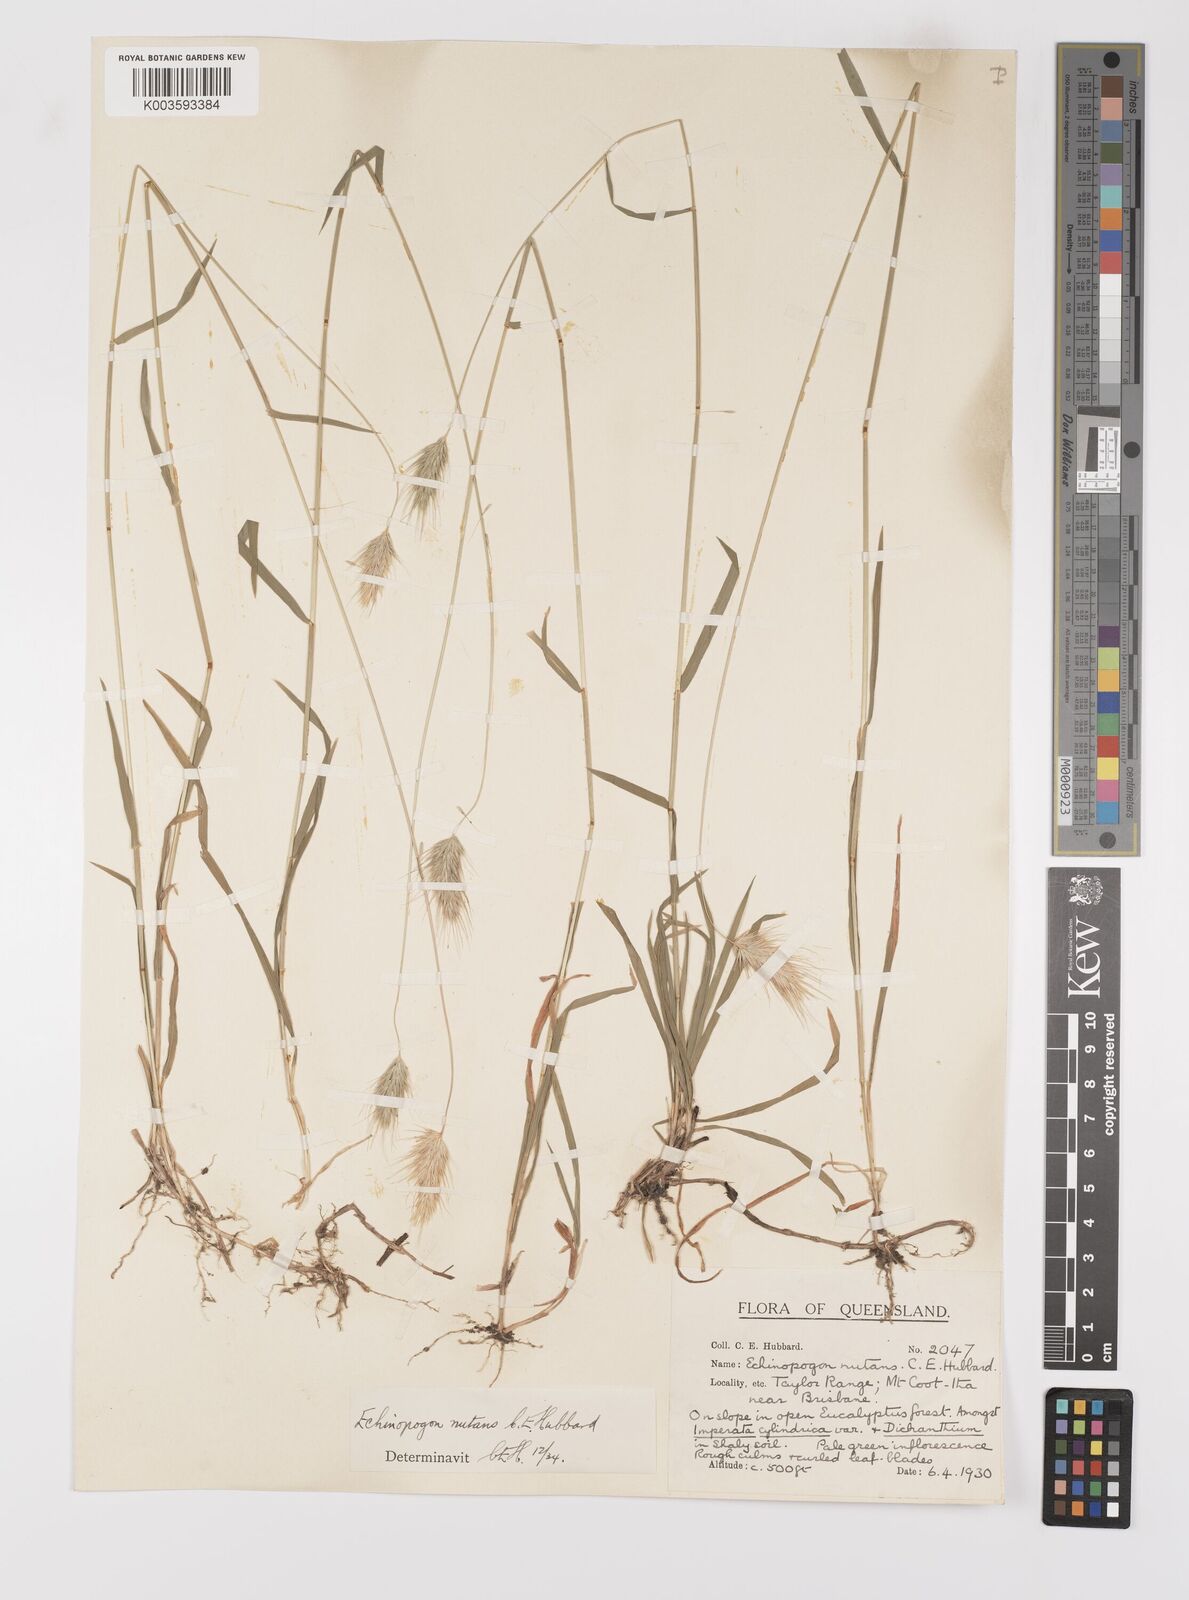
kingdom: Plantae
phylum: Tracheophyta
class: Liliopsida
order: Poales
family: Poaceae
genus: Echinopogon
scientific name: Echinopogon nutans
